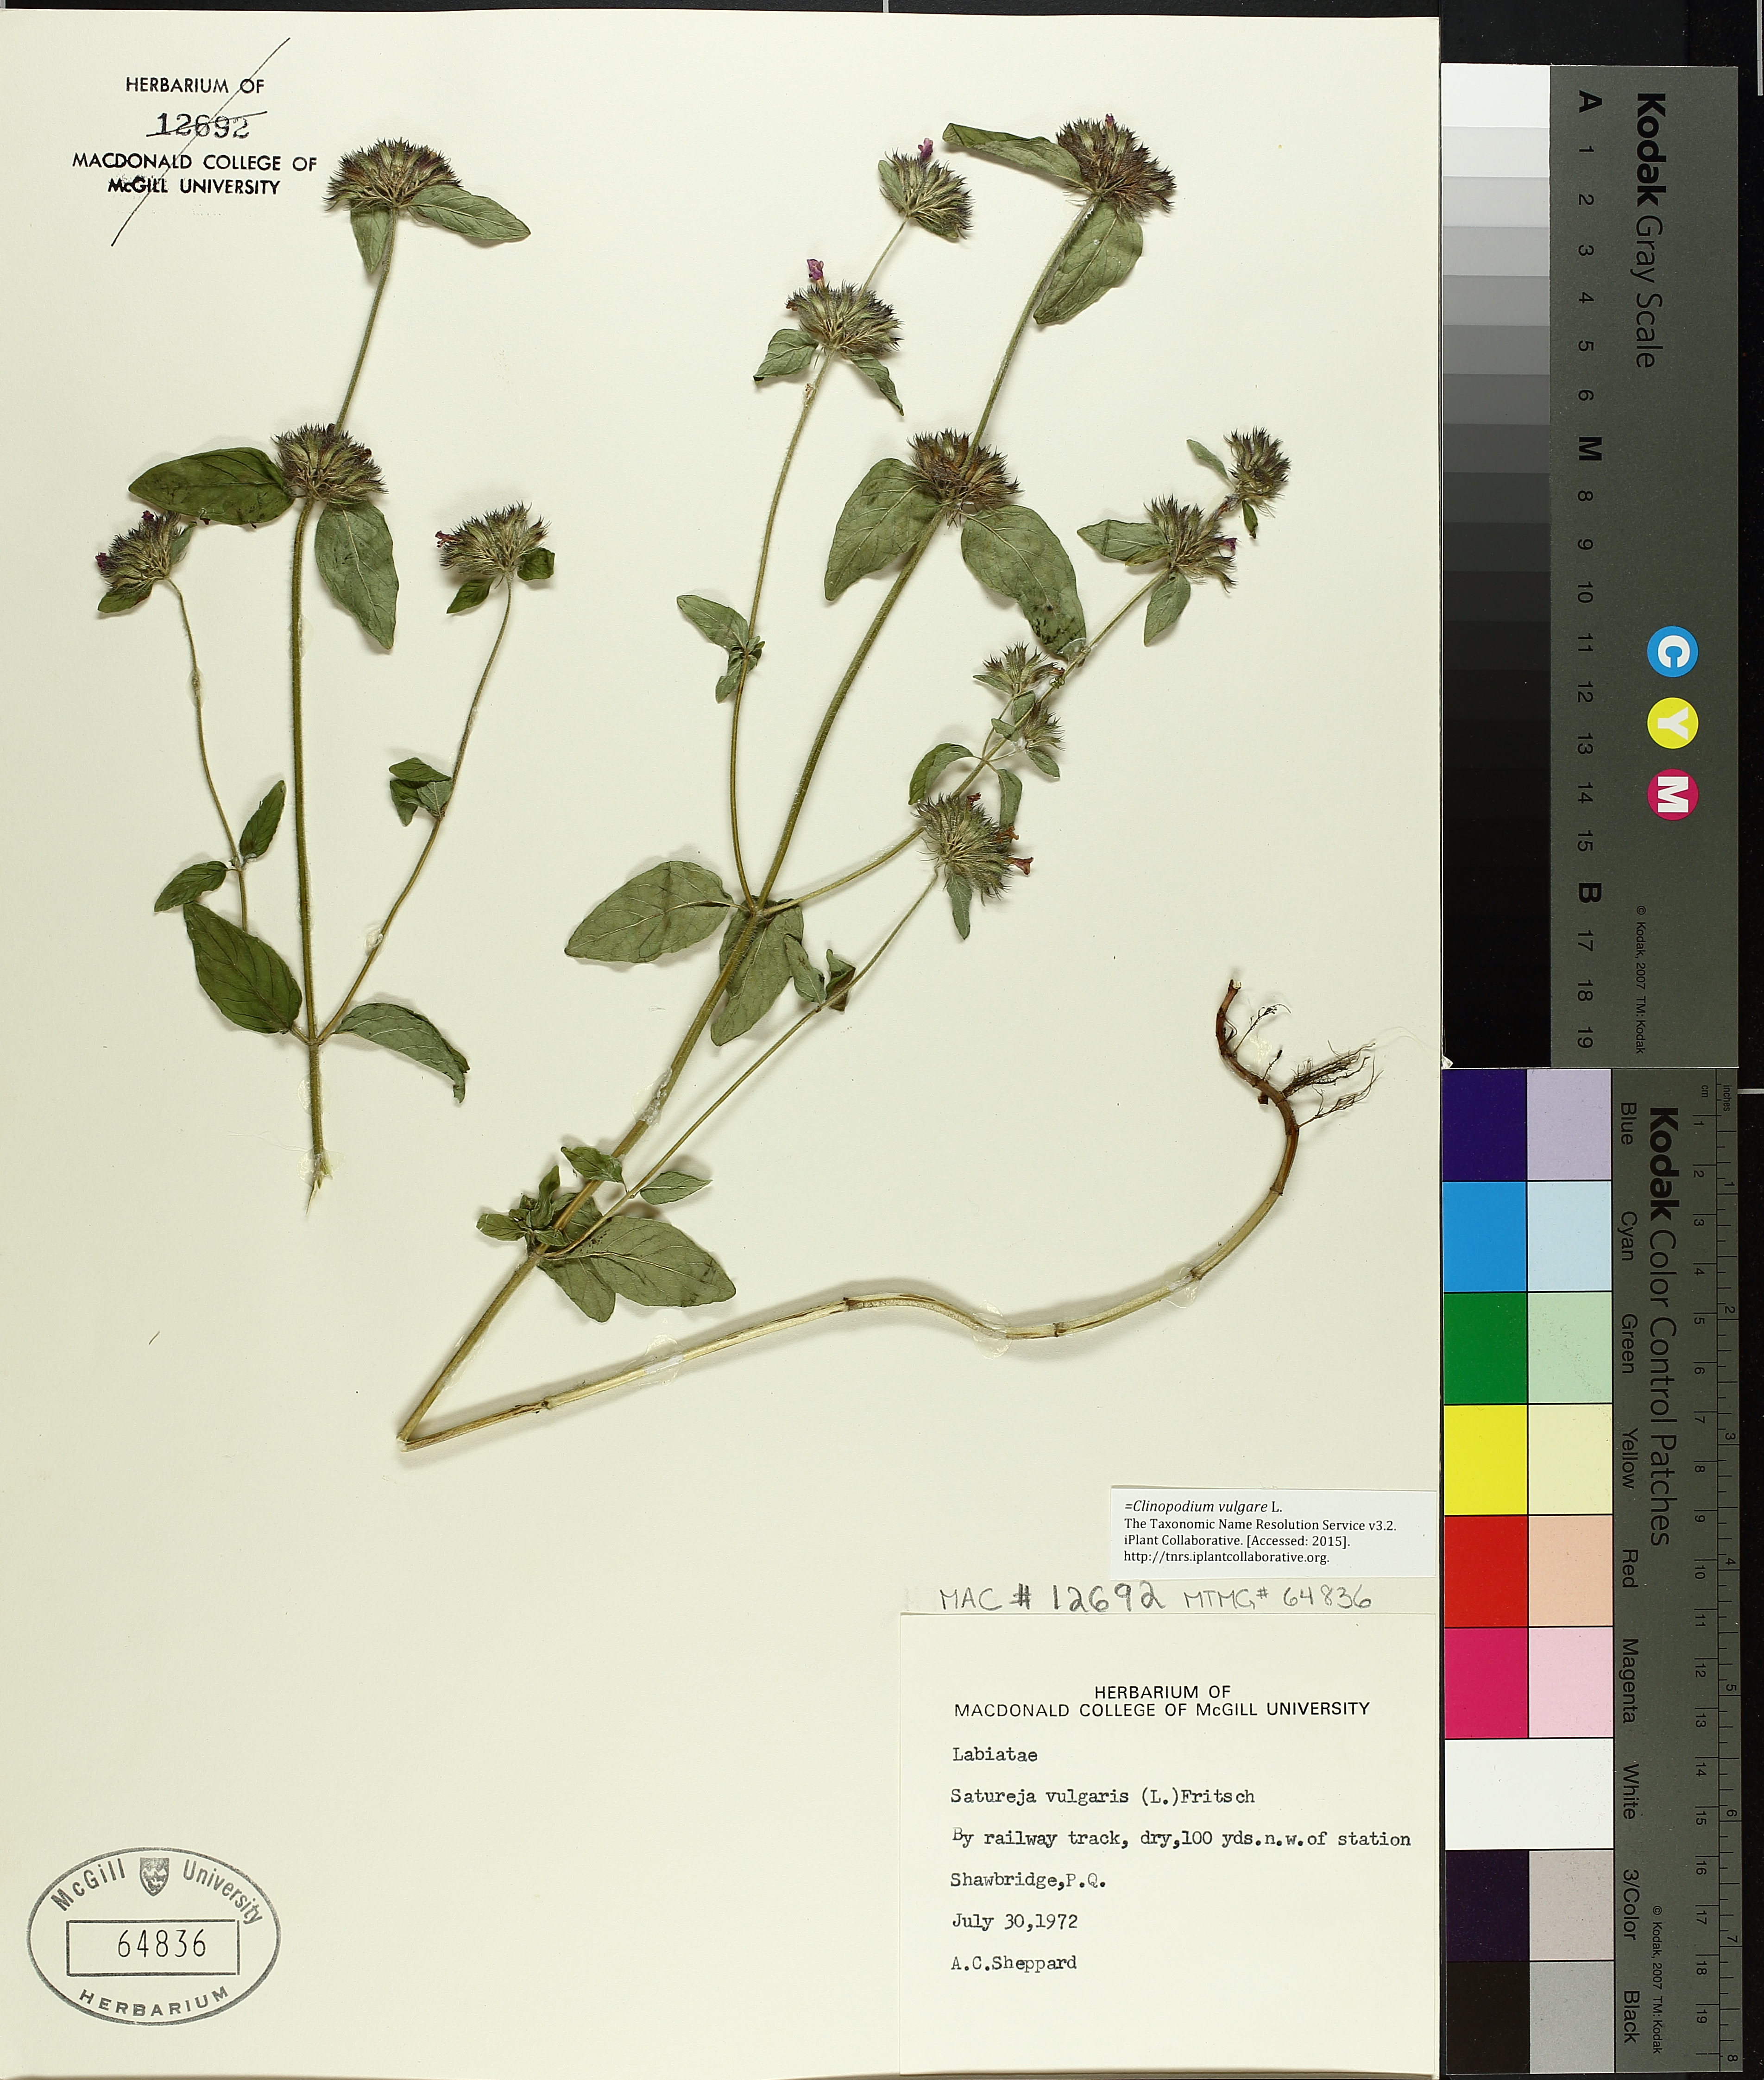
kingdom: Plantae
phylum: Tracheophyta
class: Magnoliopsida
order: Lamiales
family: Lamiaceae
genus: Clinopodium
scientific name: Clinopodium vulgare
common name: Wild basil
